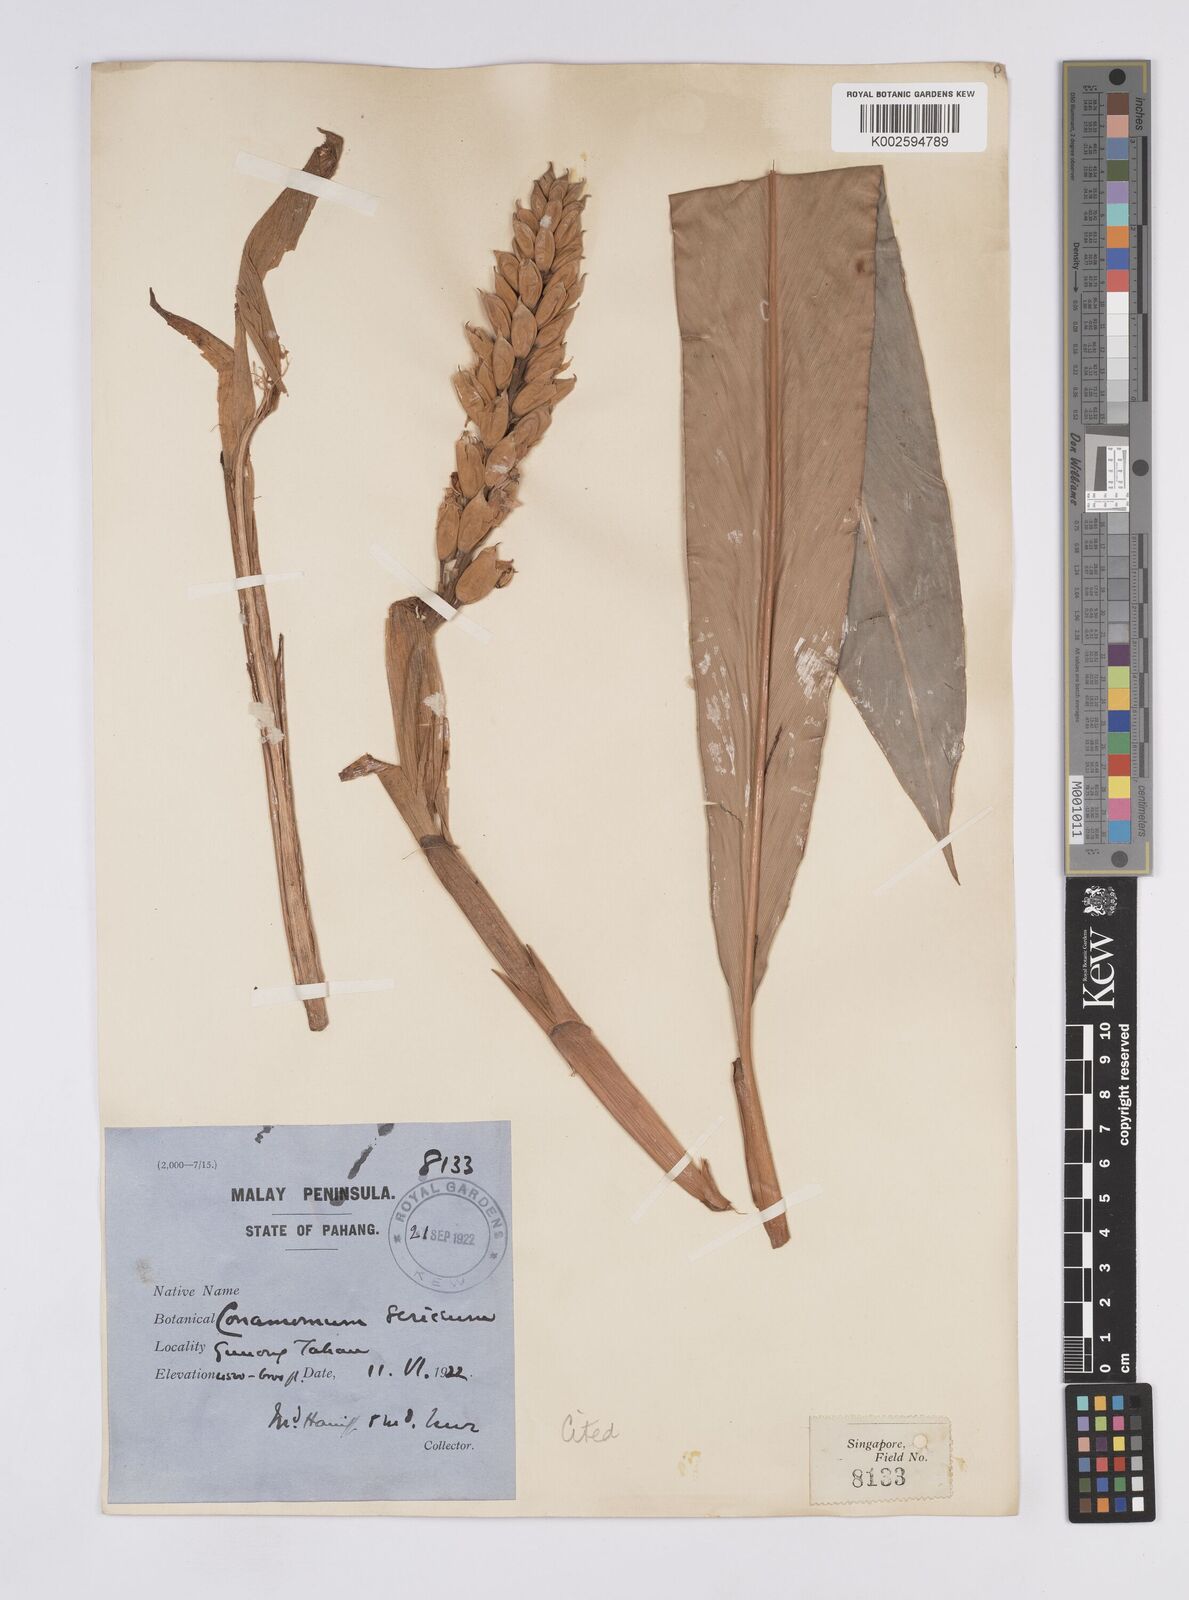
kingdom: Plantae
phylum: Tracheophyta
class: Liliopsida
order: Zingiberales
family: Zingiberaceae
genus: Geostachys
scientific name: Geostachys sericea
